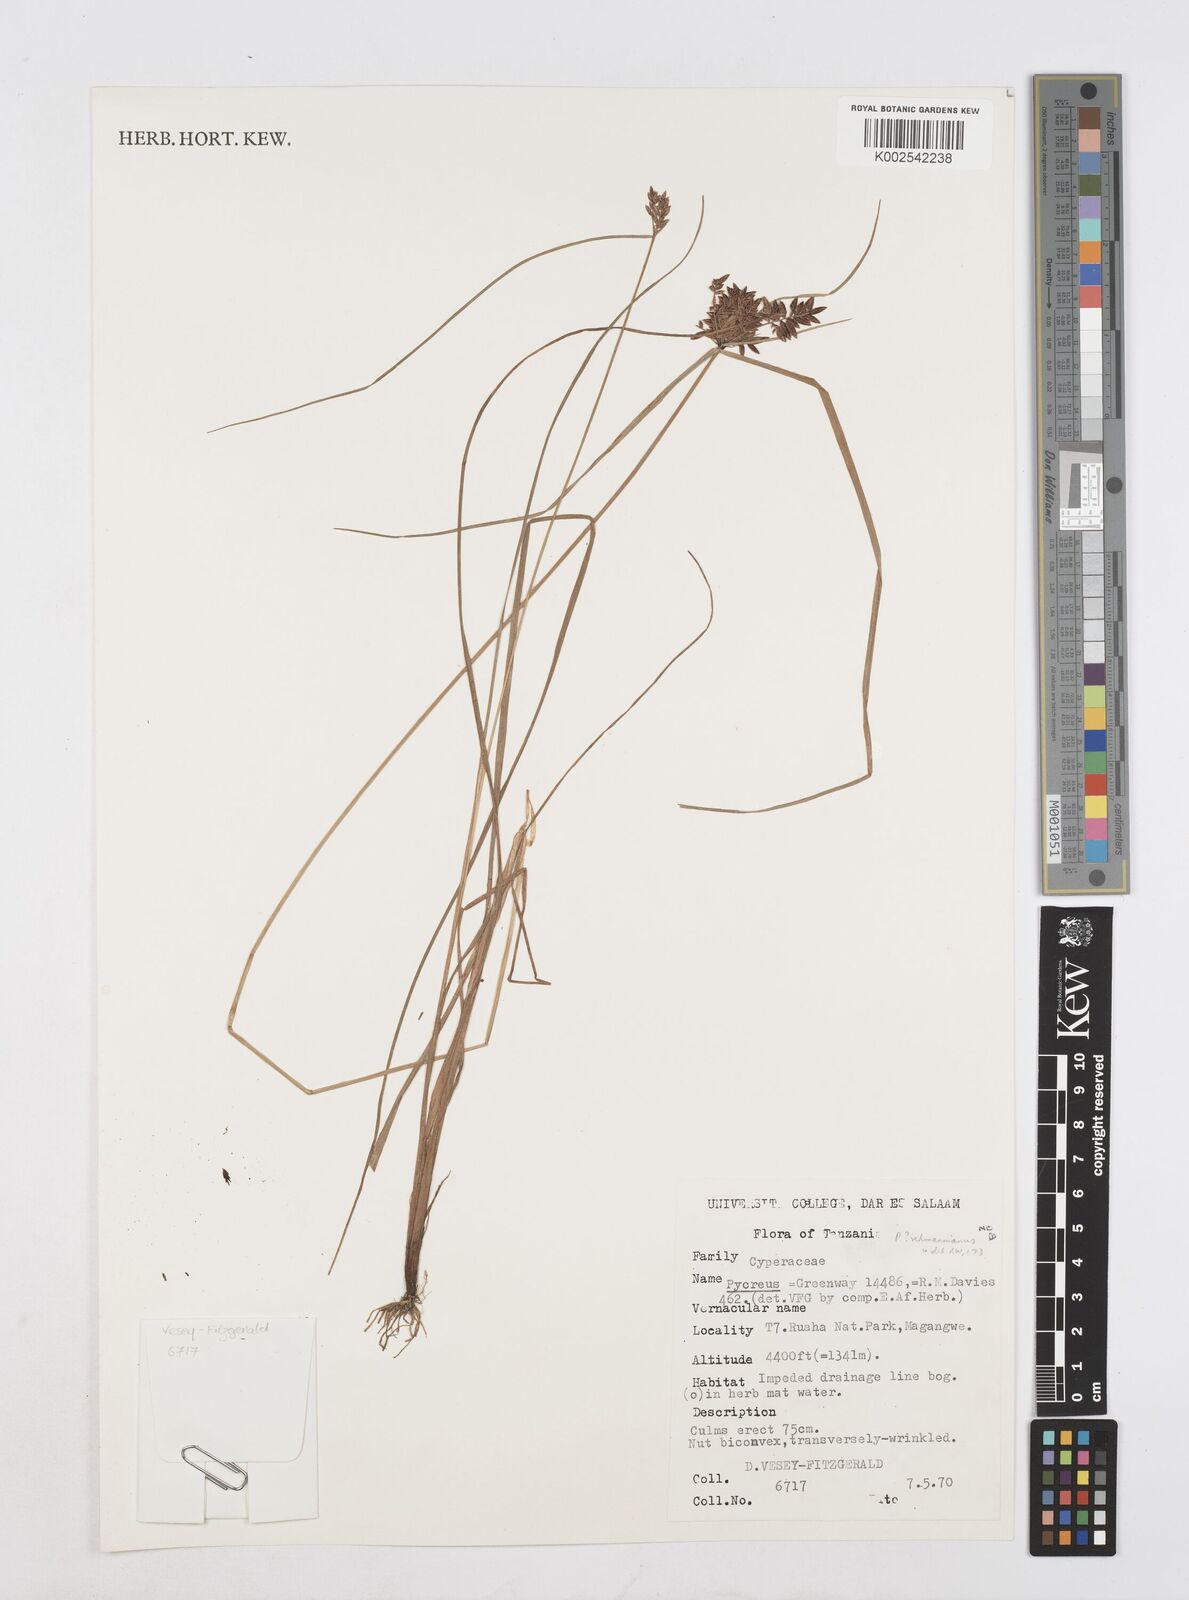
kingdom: Plantae
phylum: Tracheophyta
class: Liliopsida
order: Poales
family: Cyperaceae
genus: Cyperus
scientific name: Cyperus
